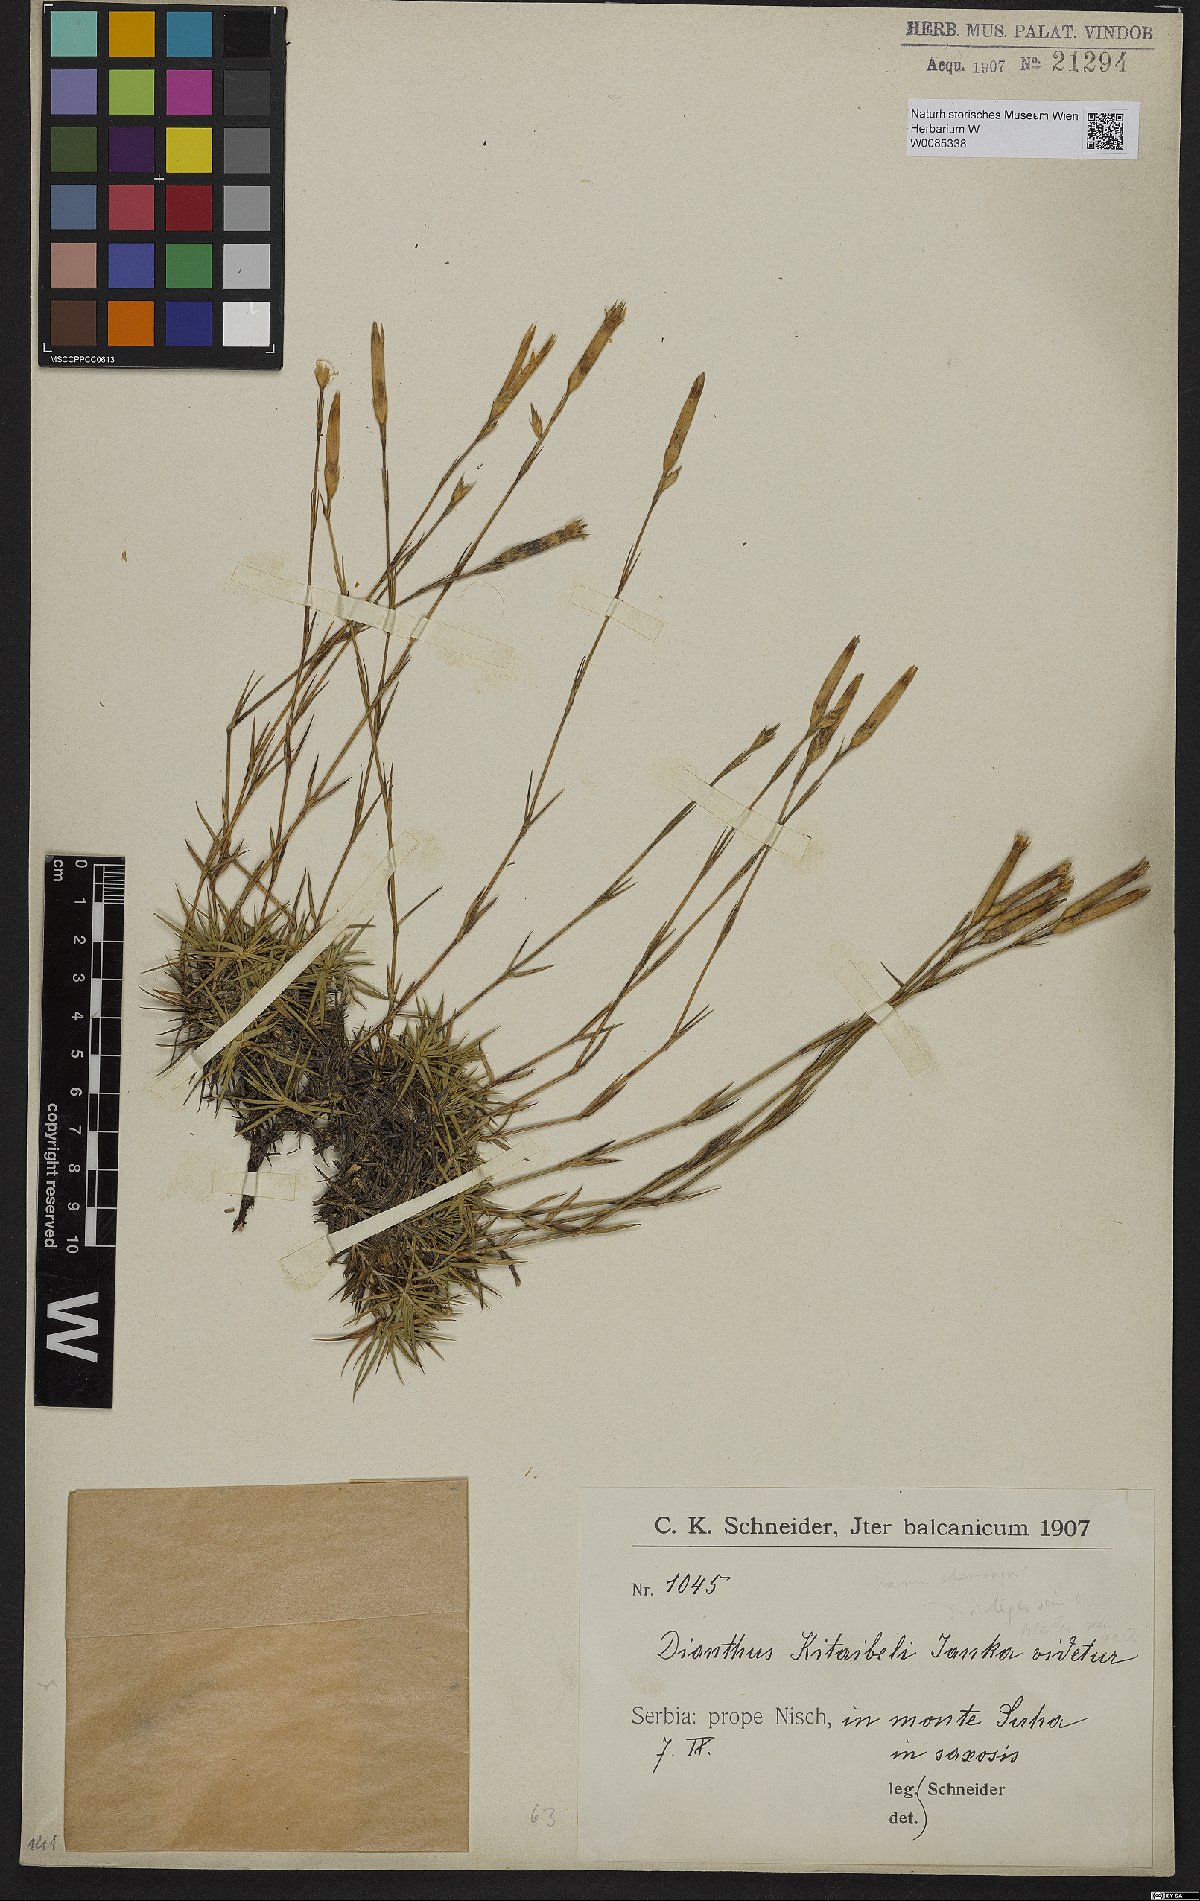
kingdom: Plantae
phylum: Tracheophyta
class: Magnoliopsida
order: Caryophyllales
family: Caryophyllaceae
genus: Dianthus
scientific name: Dianthus petraeus
